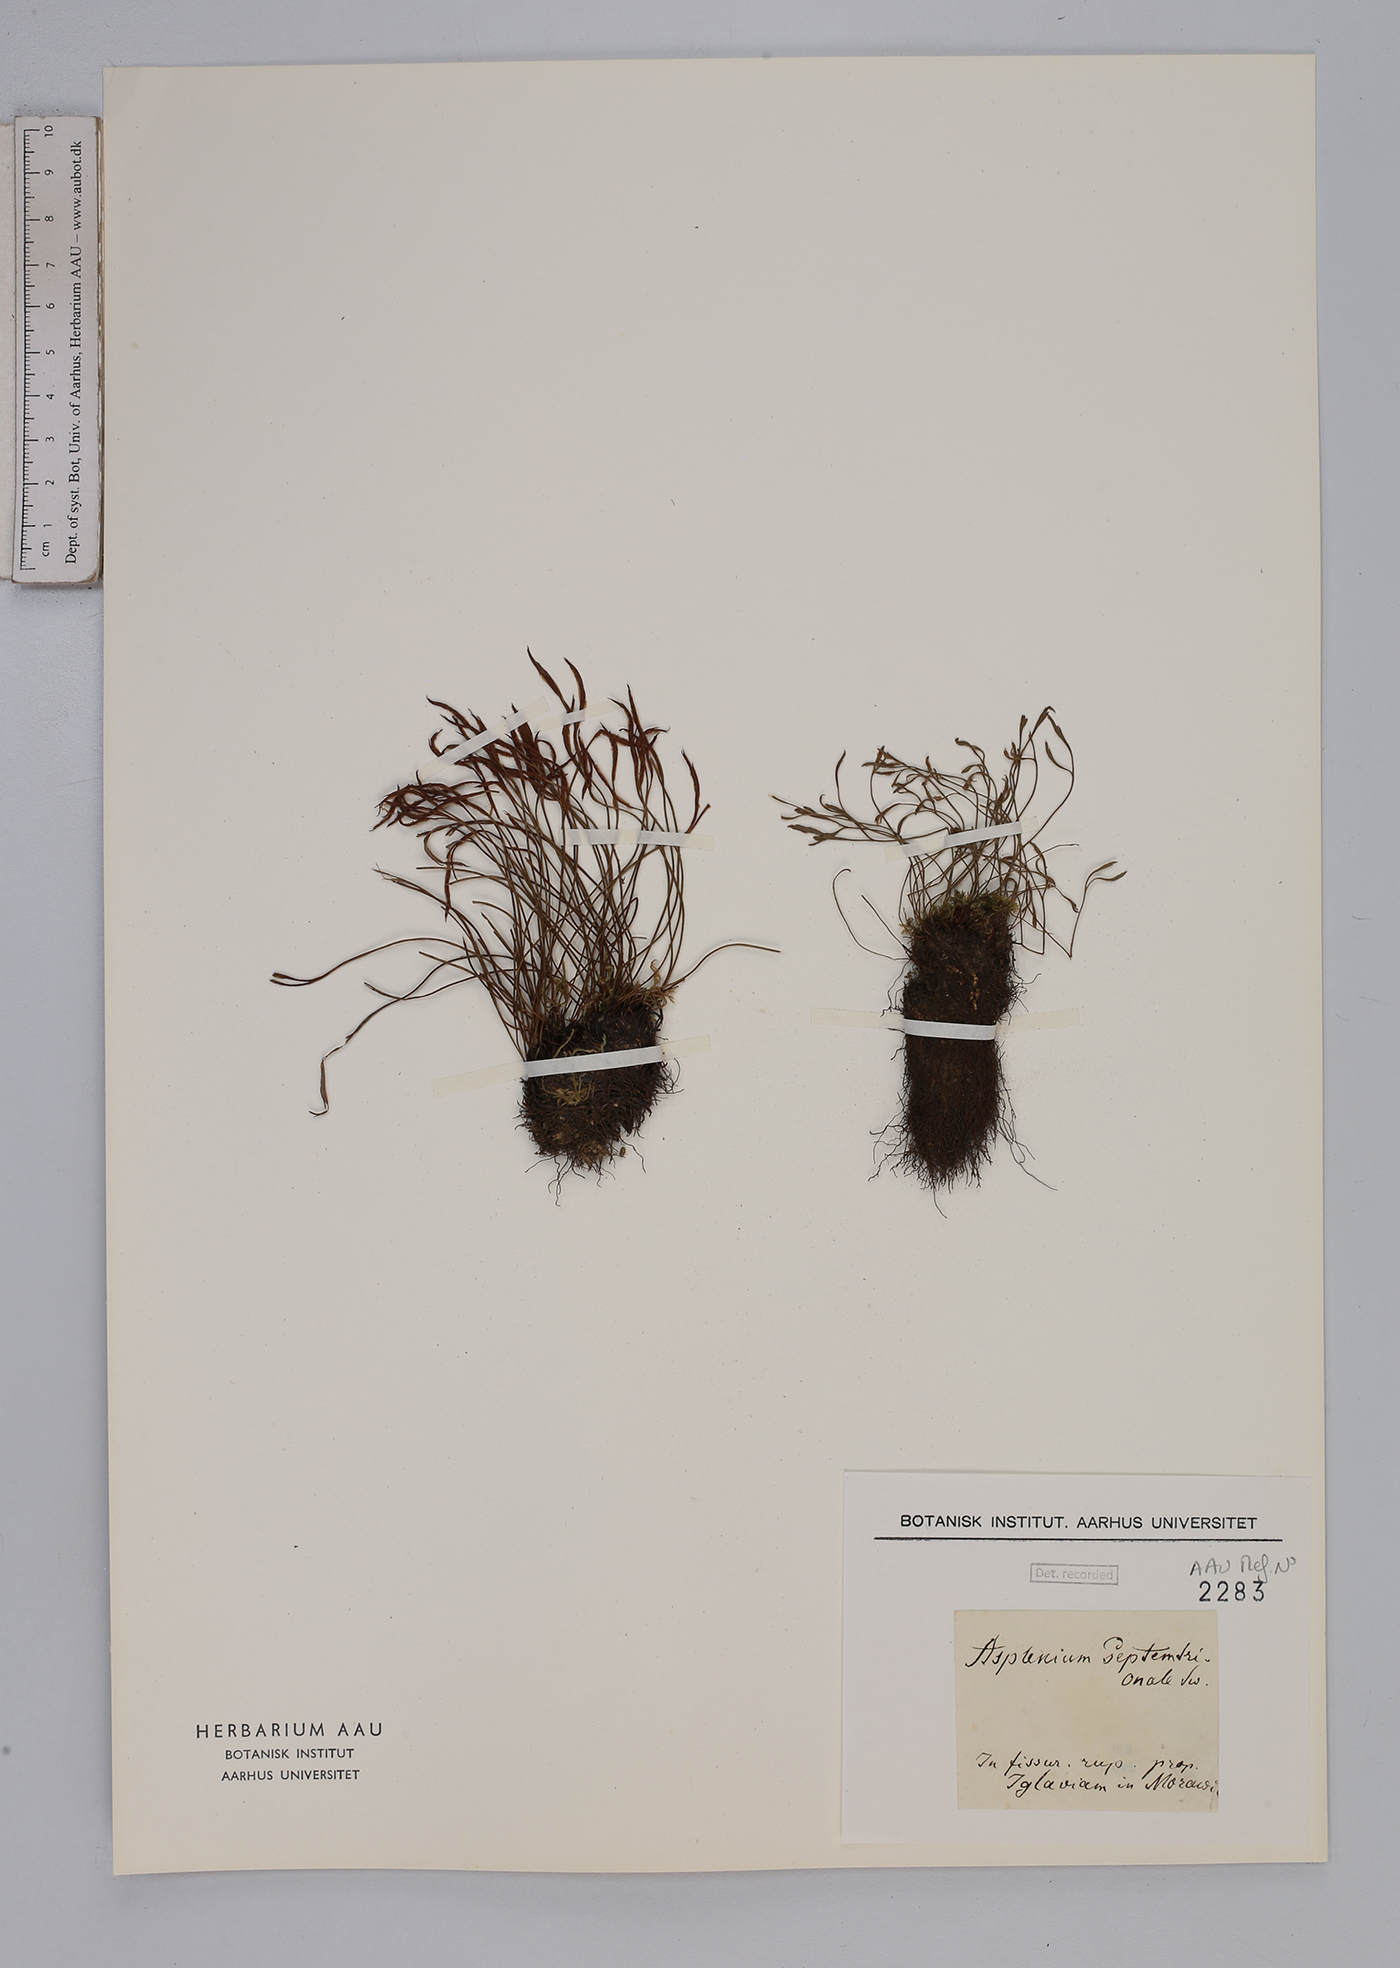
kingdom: Plantae
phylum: Tracheophyta
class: Polypodiopsida
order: Polypodiales
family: Aspleniaceae
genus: Asplenium
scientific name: Asplenium septentrionale
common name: Forked spleenwort
